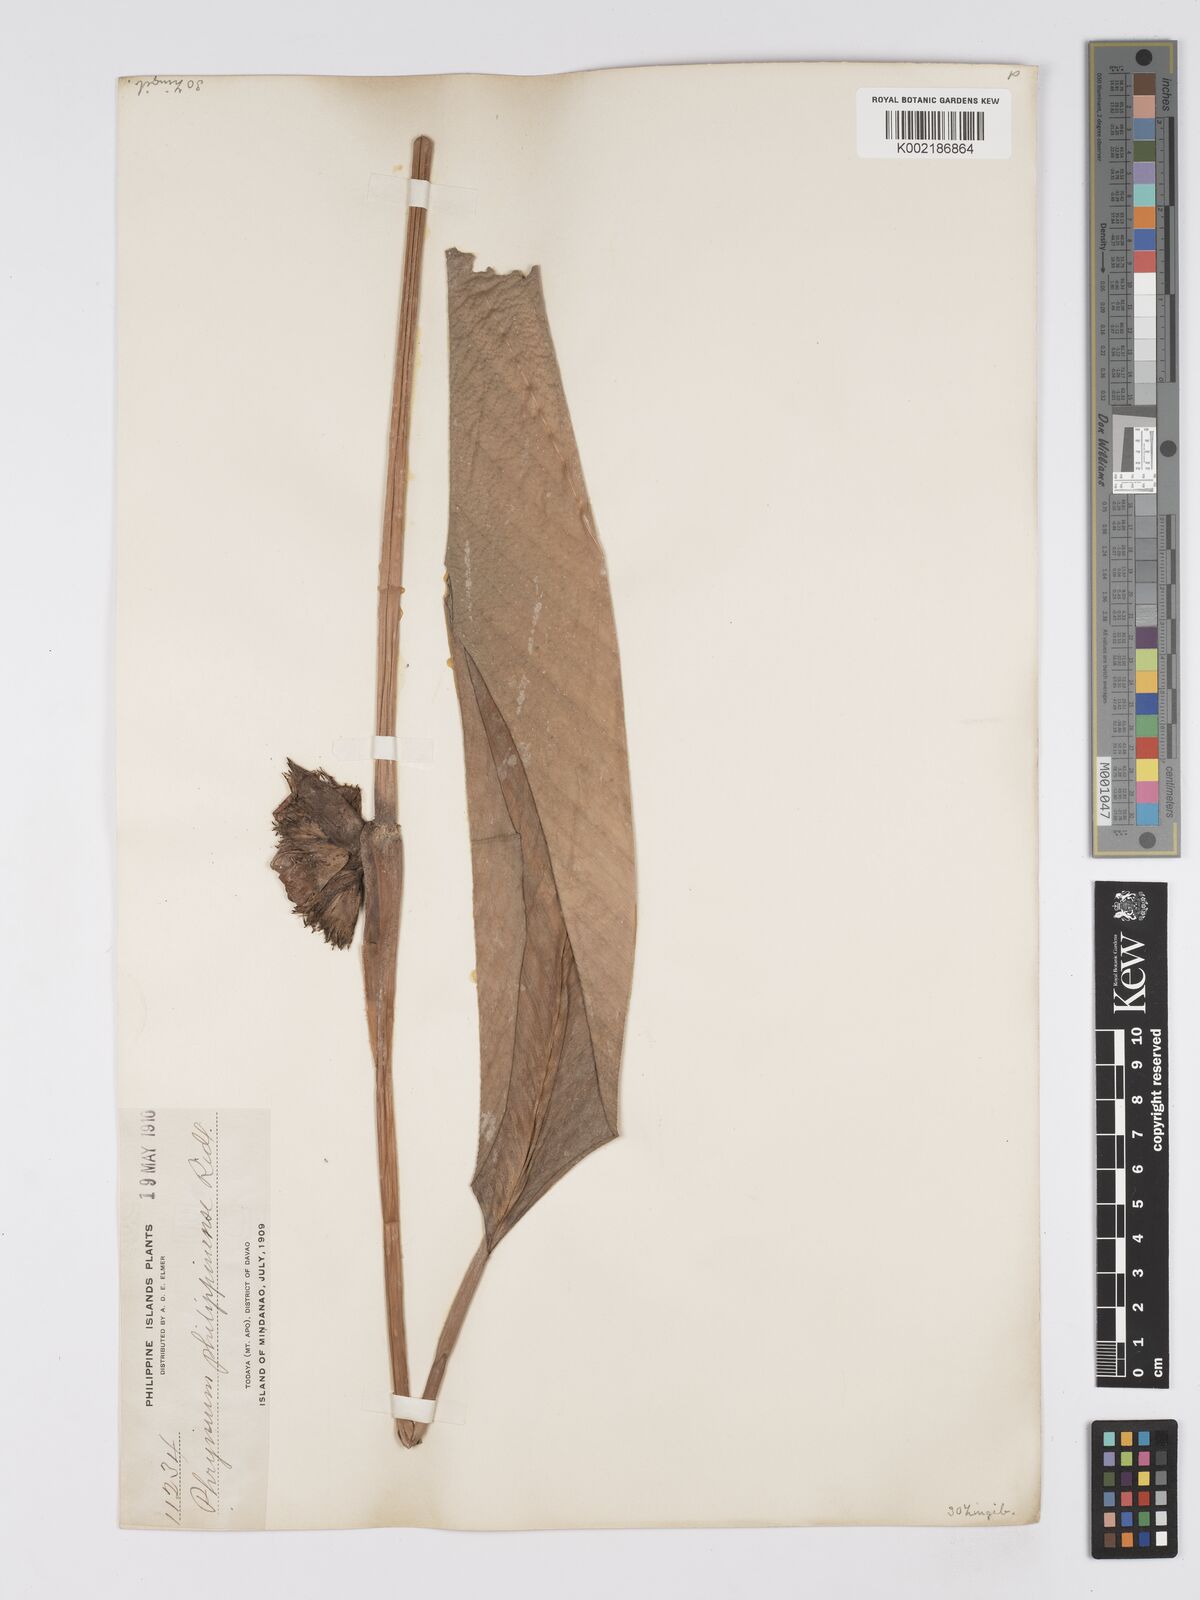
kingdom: Plantae
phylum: Tracheophyta
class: Liliopsida
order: Zingiberales
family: Marantaceae
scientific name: Marantaceae
